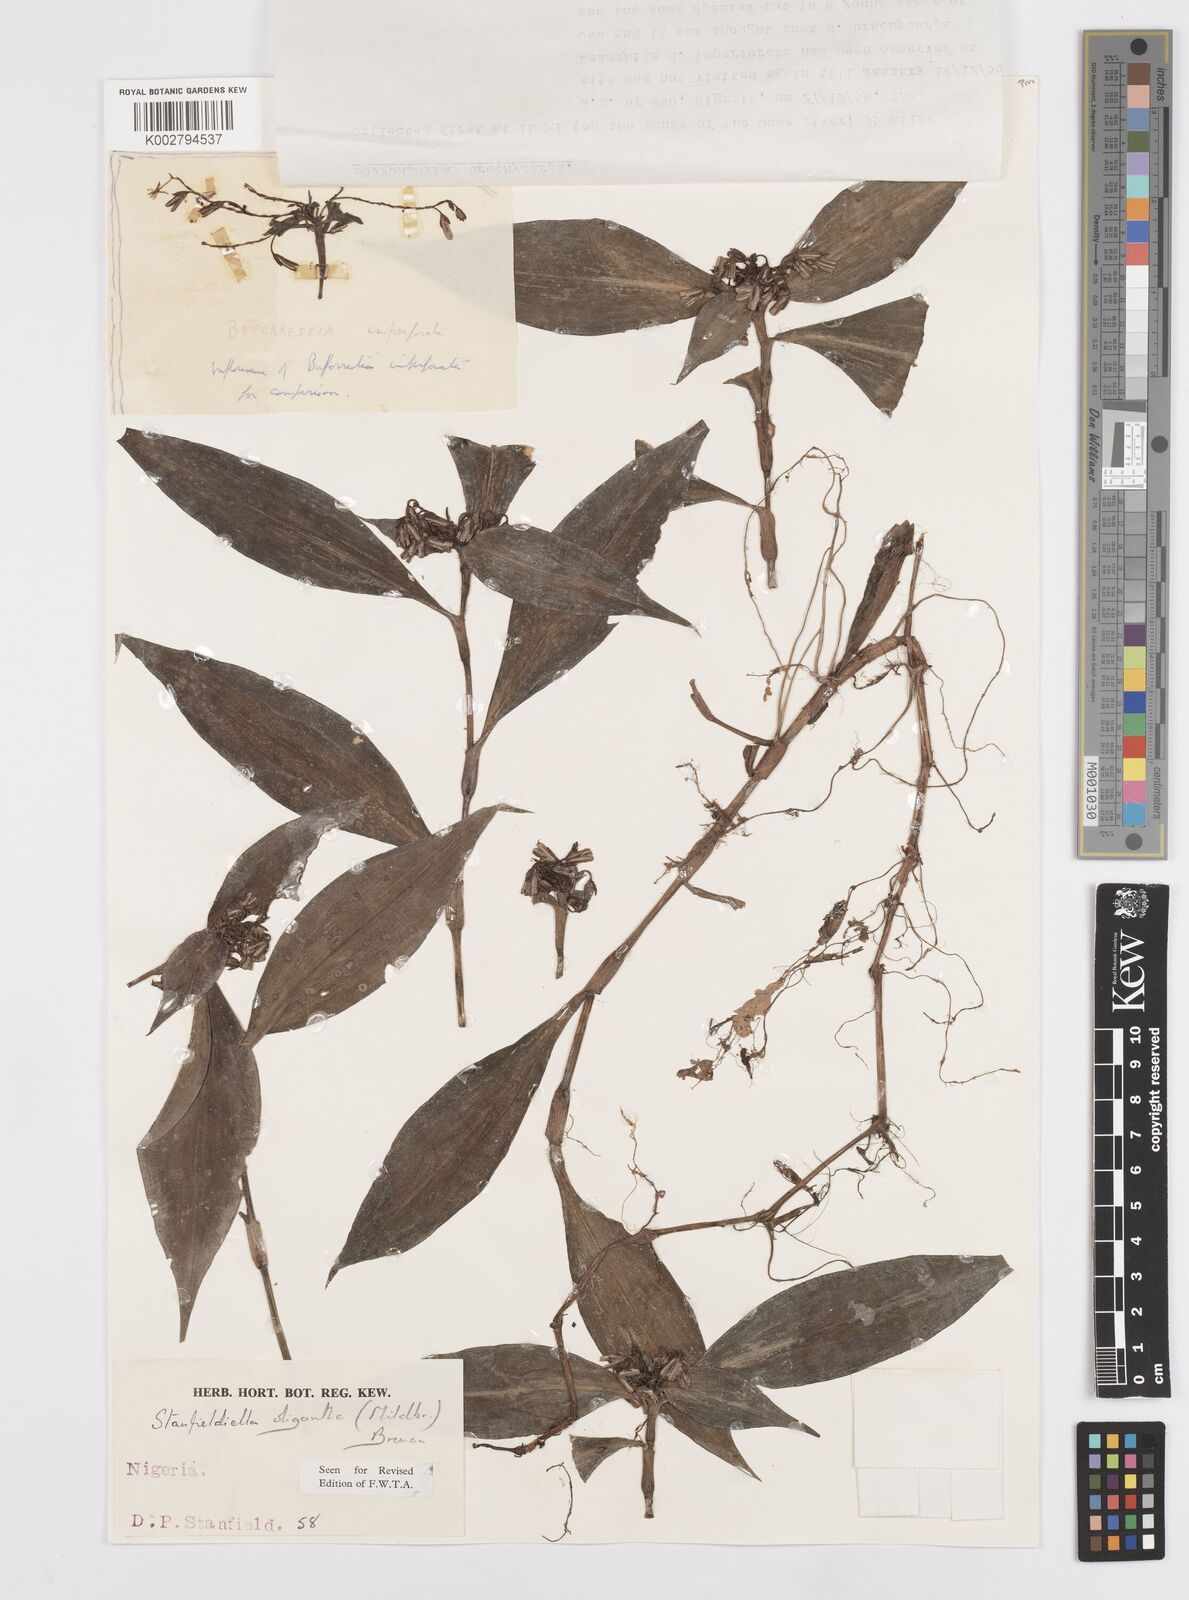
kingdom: Plantae
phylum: Tracheophyta
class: Liliopsida
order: Commelinales
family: Commelinaceae
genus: Stanfieldiella
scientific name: Stanfieldiella oligantha
